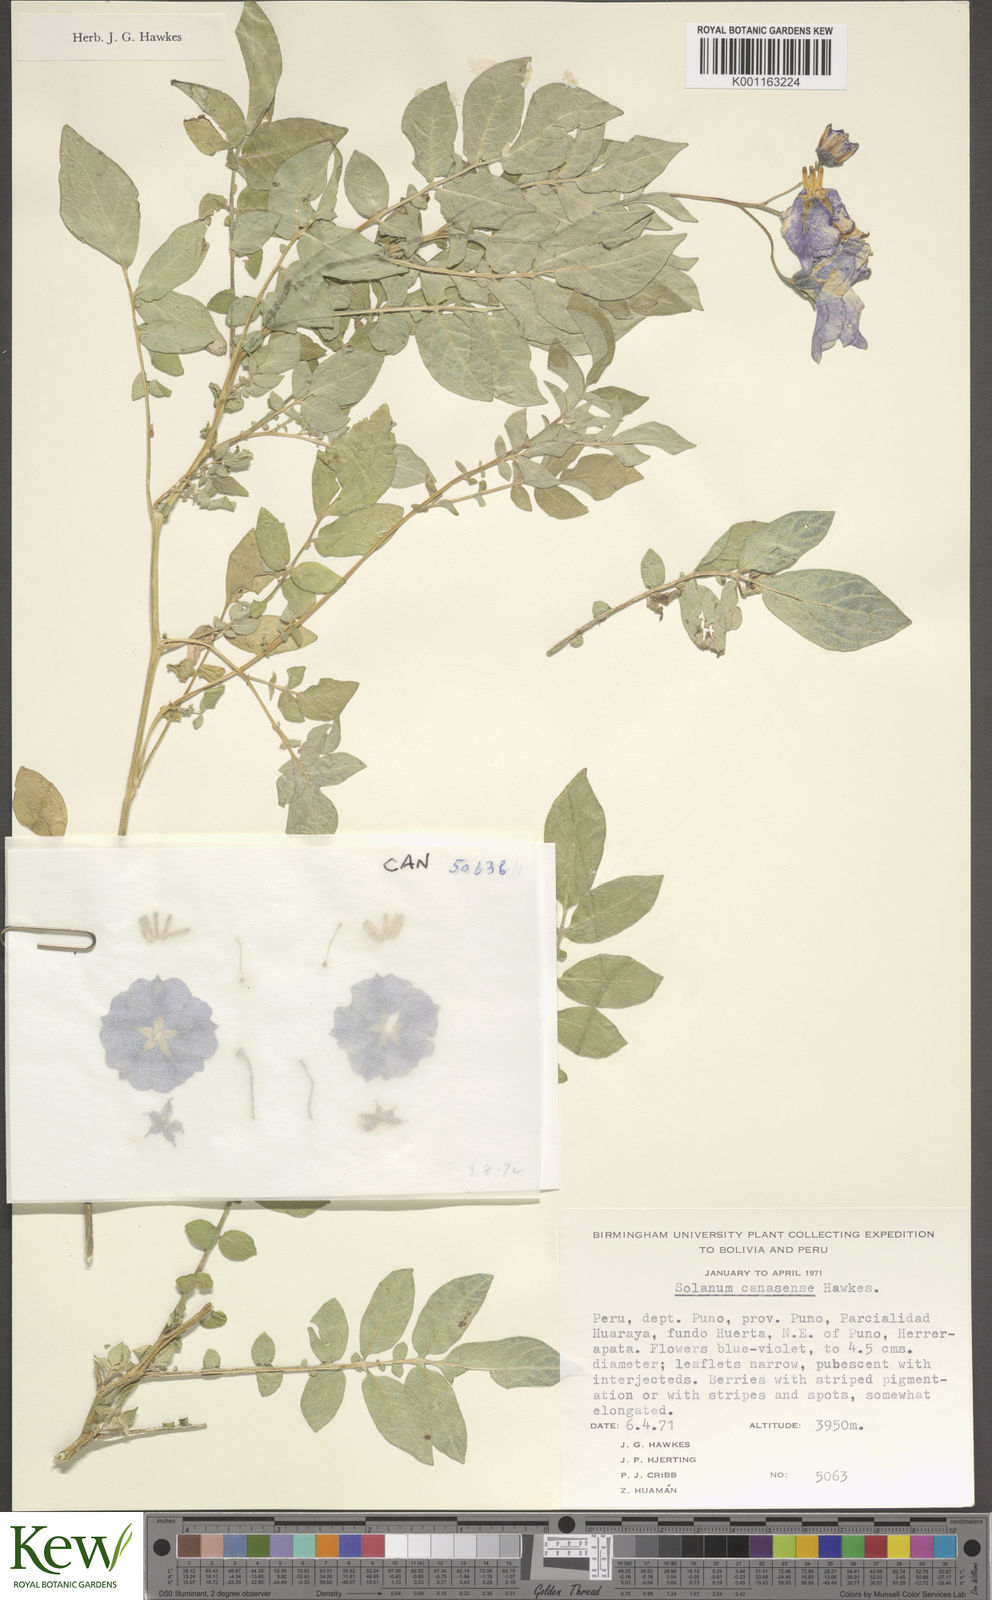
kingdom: Plantae
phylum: Tracheophyta
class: Magnoliopsida
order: Solanales
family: Solanaceae
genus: Solanum
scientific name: Solanum candolleanum
